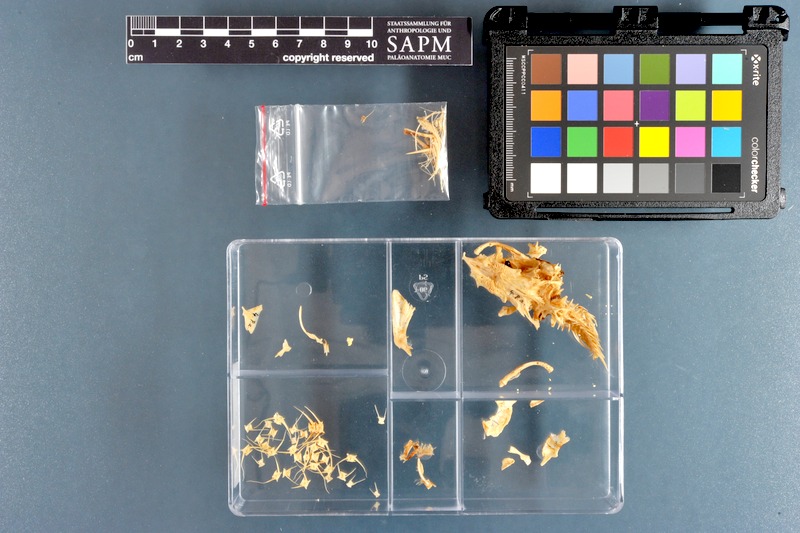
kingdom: Animalia
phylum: Chordata
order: Siluriformes
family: Plotosidae
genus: Plotosus
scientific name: Plotosus lineatus
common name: Striped eel catfish
